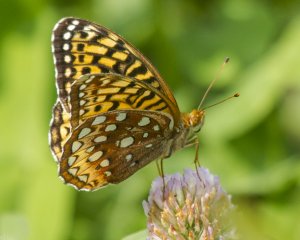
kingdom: Animalia
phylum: Arthropoda
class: Insecta
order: Lepidoptera
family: Nymphalidae
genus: Speyeria
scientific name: Speyeria cybele
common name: Great Spangled Fritillary
